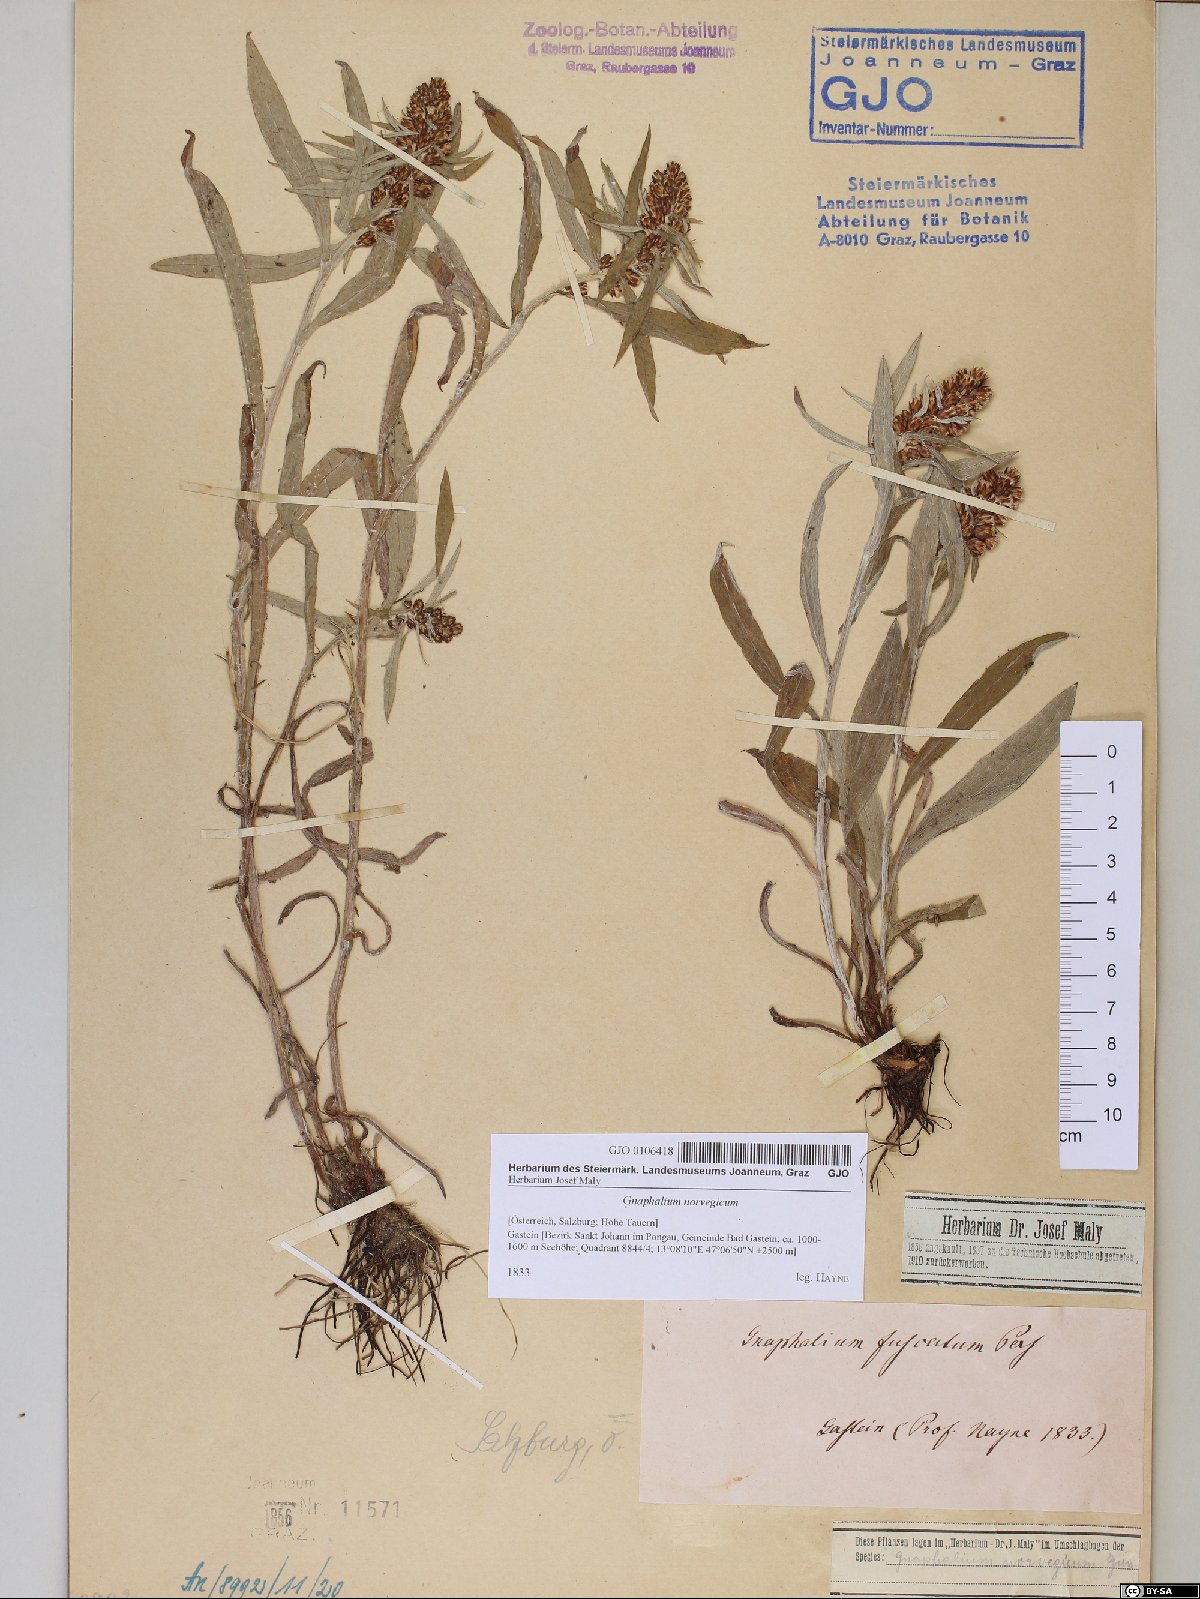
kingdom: Plantae
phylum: Tracheophyta
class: Magnoliopsida
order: Asterales
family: Asteraceae
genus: Omalotheca
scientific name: Omalotheca norvegica
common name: Norwegian arctic-cudweed
